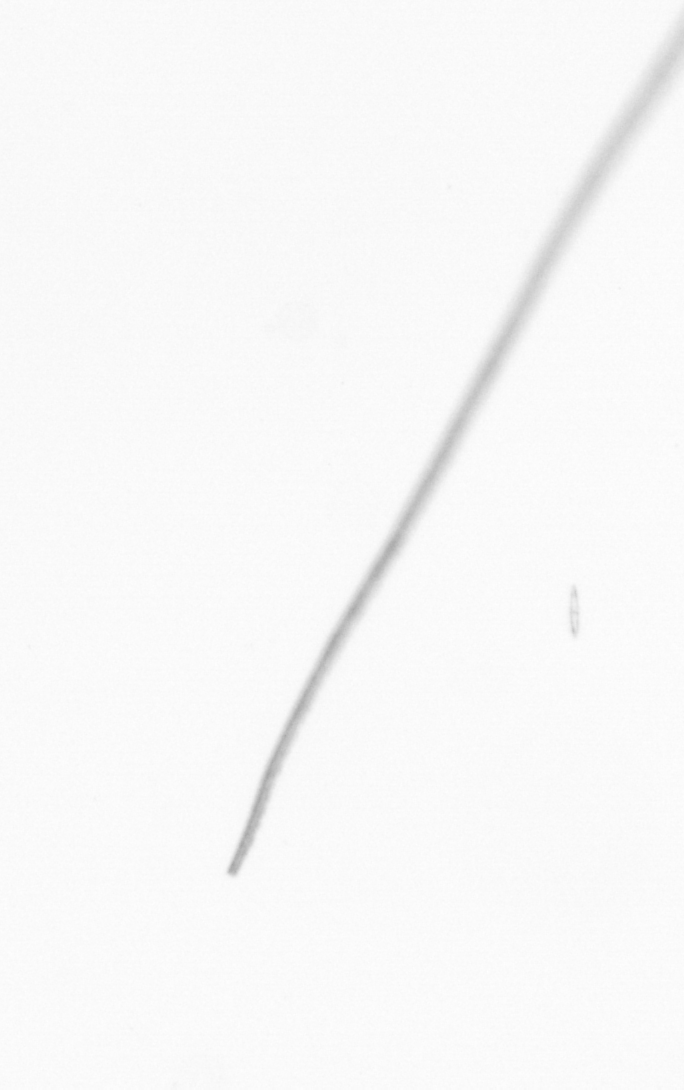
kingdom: Chromista
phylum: Ochrophyta
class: Bacillariophyceae
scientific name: Bacillariophyceae
